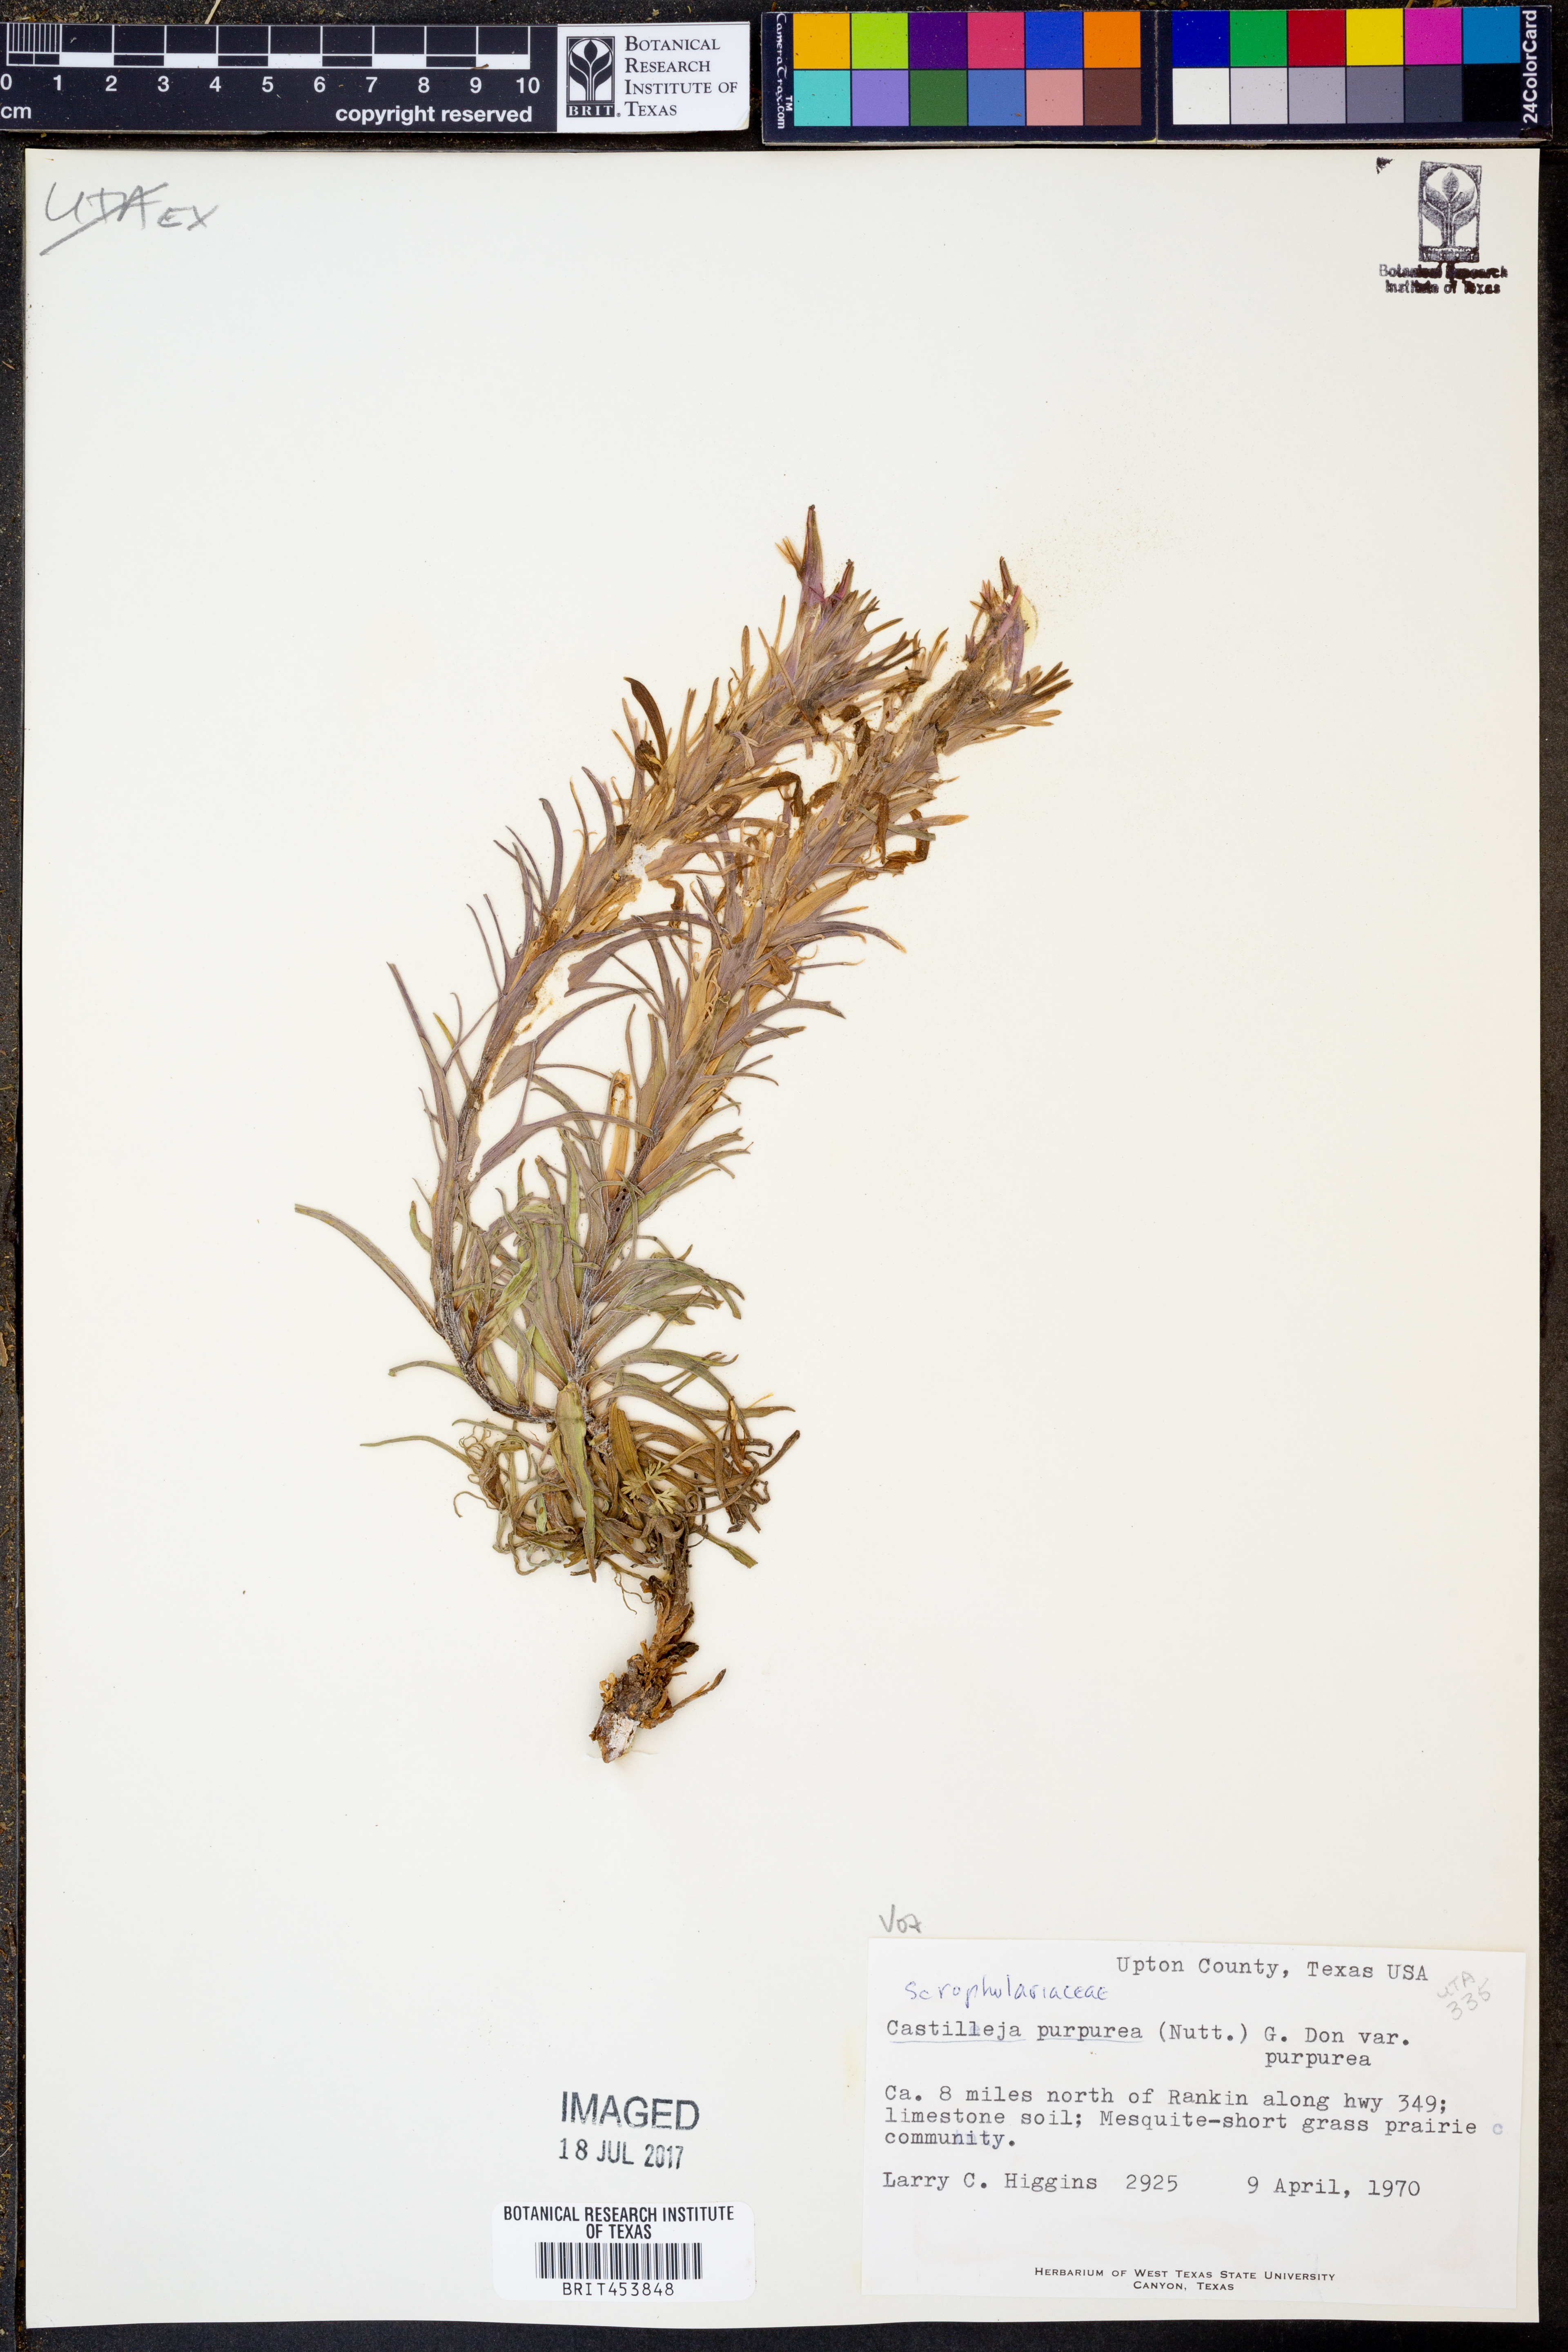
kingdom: Plantae
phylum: Tracheophyta
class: Magnoliopsida
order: Lamiales
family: Orobanchaceae
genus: Castilleja
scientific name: Castilleja purpurea
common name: Plains paintbrush
